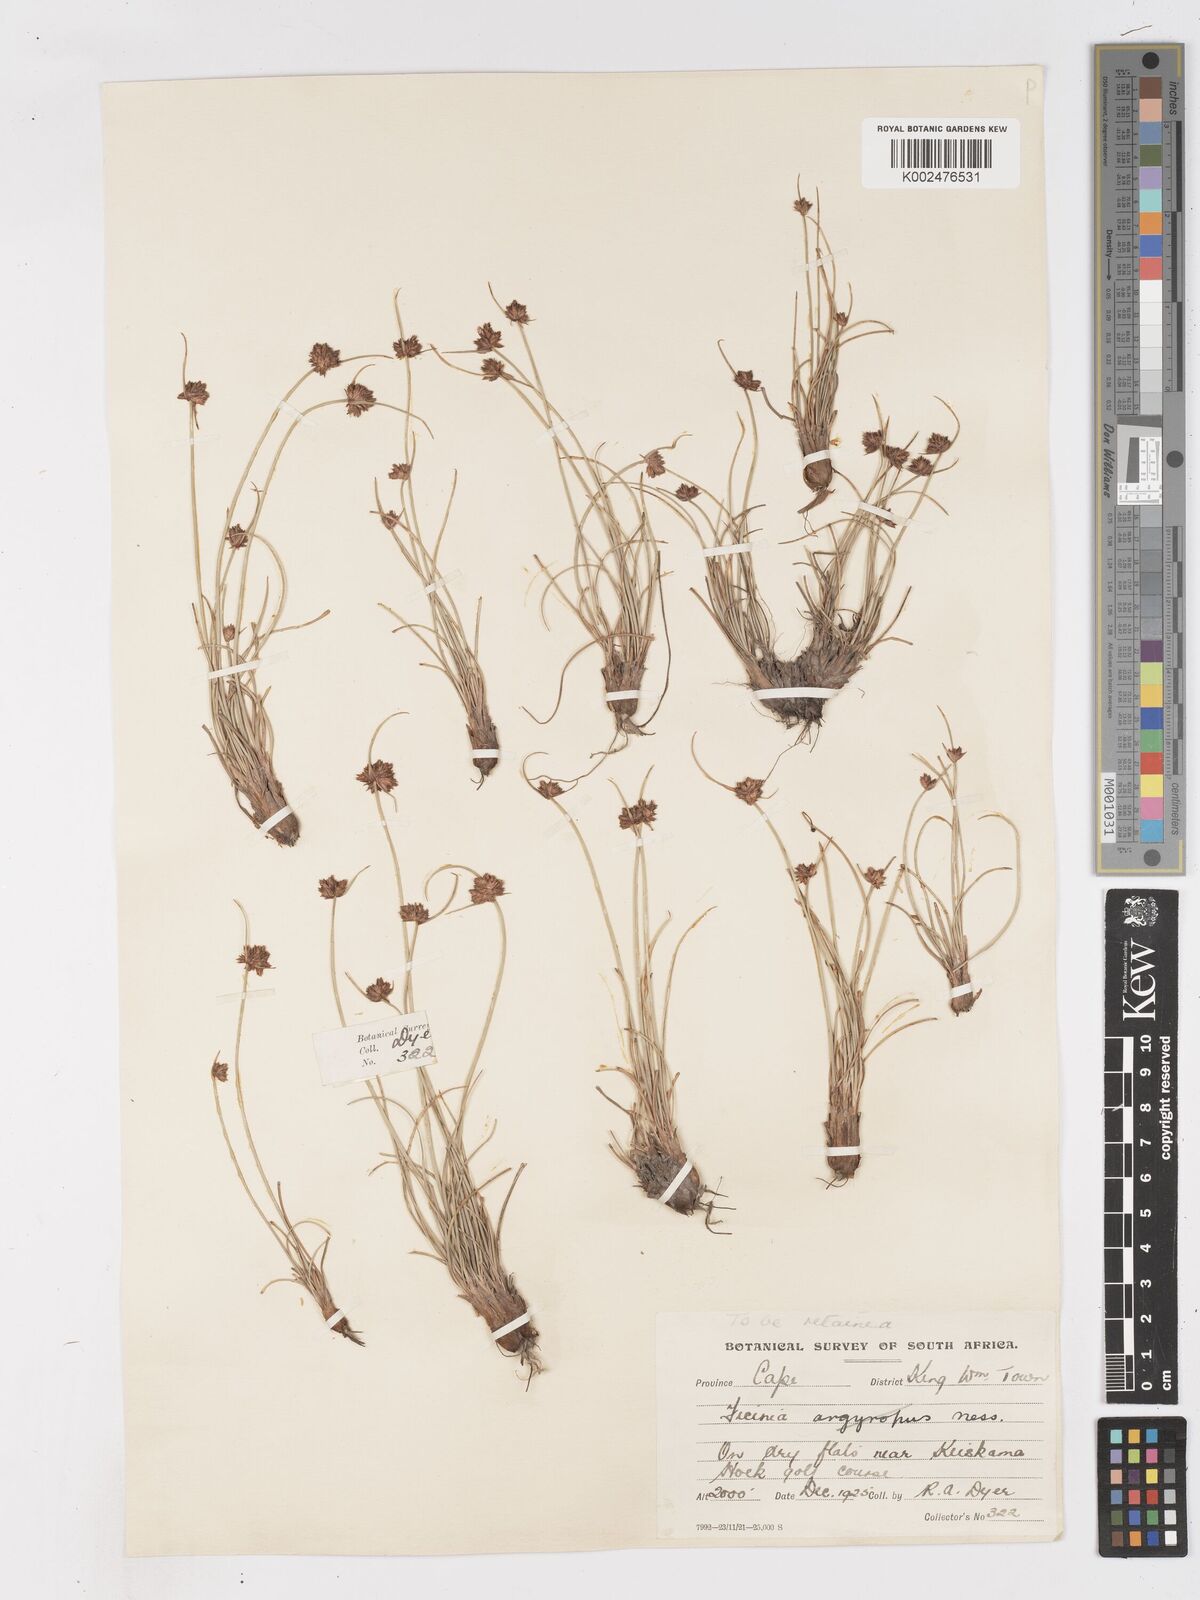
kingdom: Plantae
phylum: Tracheophyta
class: Liliopsida
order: Poales
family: Cyperaceae
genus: Ficinia
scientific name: Ficinia
